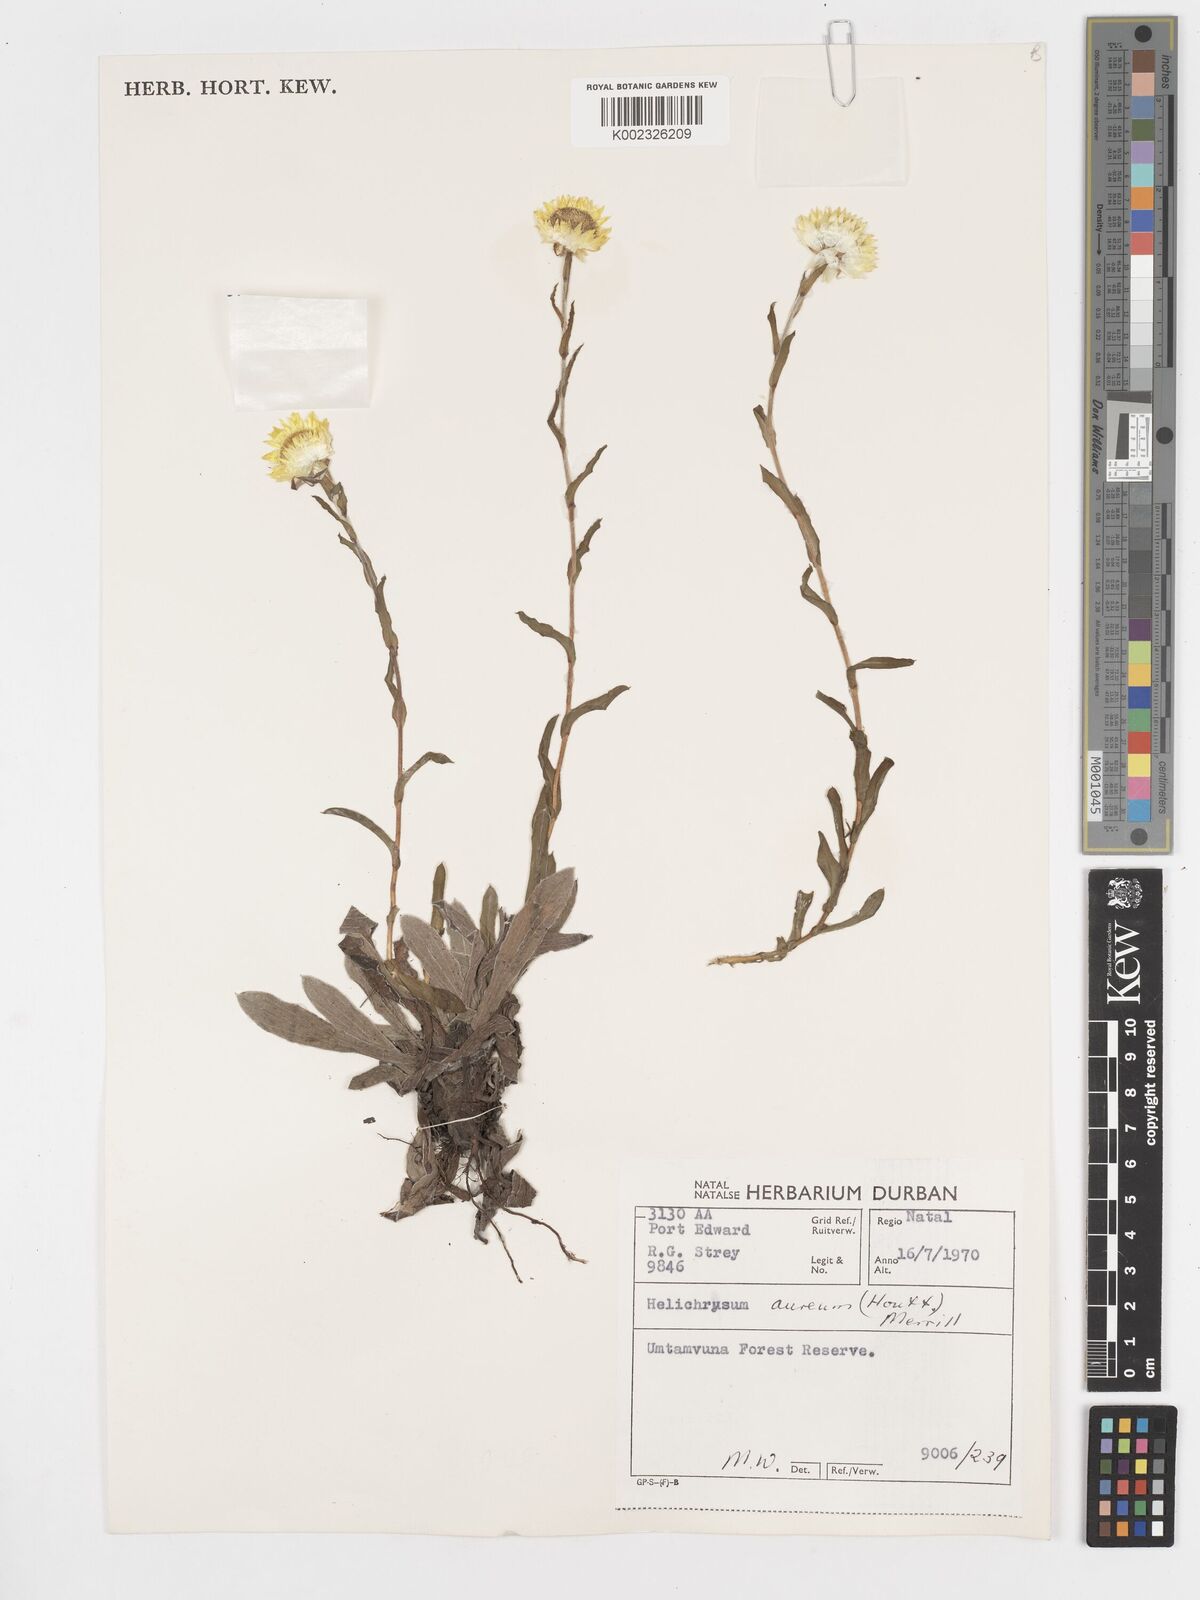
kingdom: Plantae
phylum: Tracheophyta
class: Magnoliopsida
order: Asterales
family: Asteraceae
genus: Helichrysum
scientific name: Helichrysum aureum
